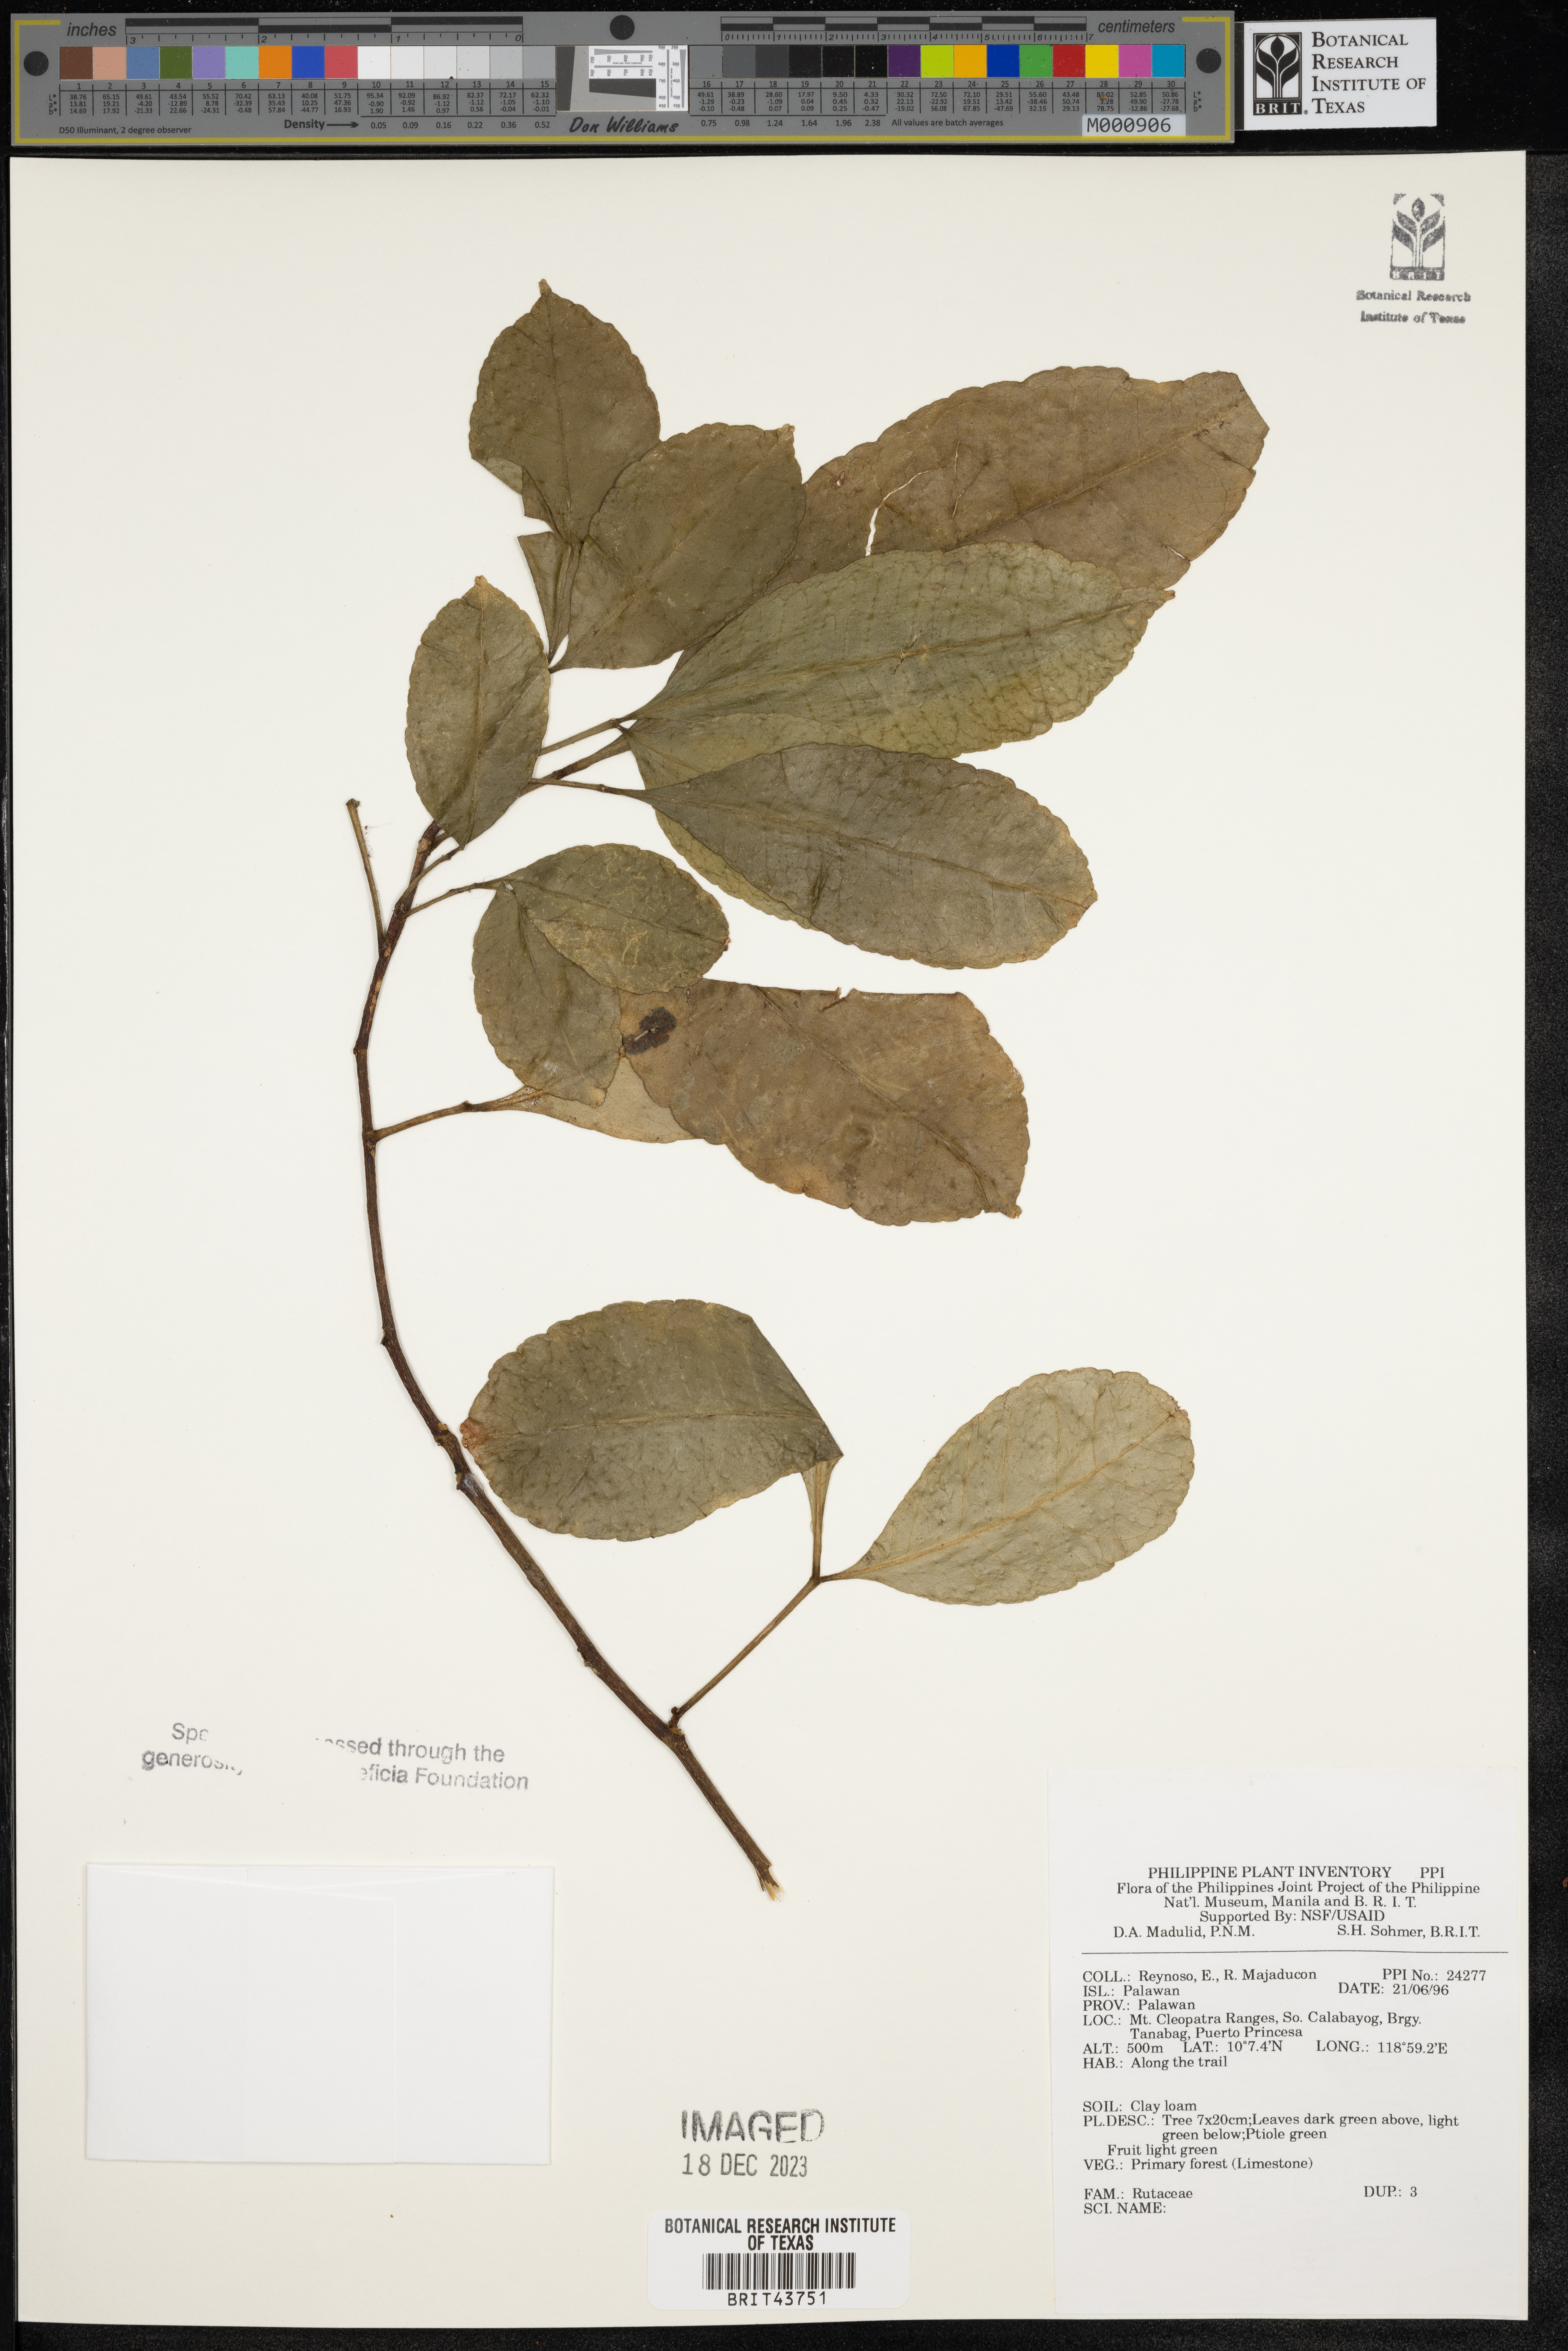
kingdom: Plantae
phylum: Tracheophyta
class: Magnoliopsida
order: Sapindales
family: Rutaceae
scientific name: Rutaceae
